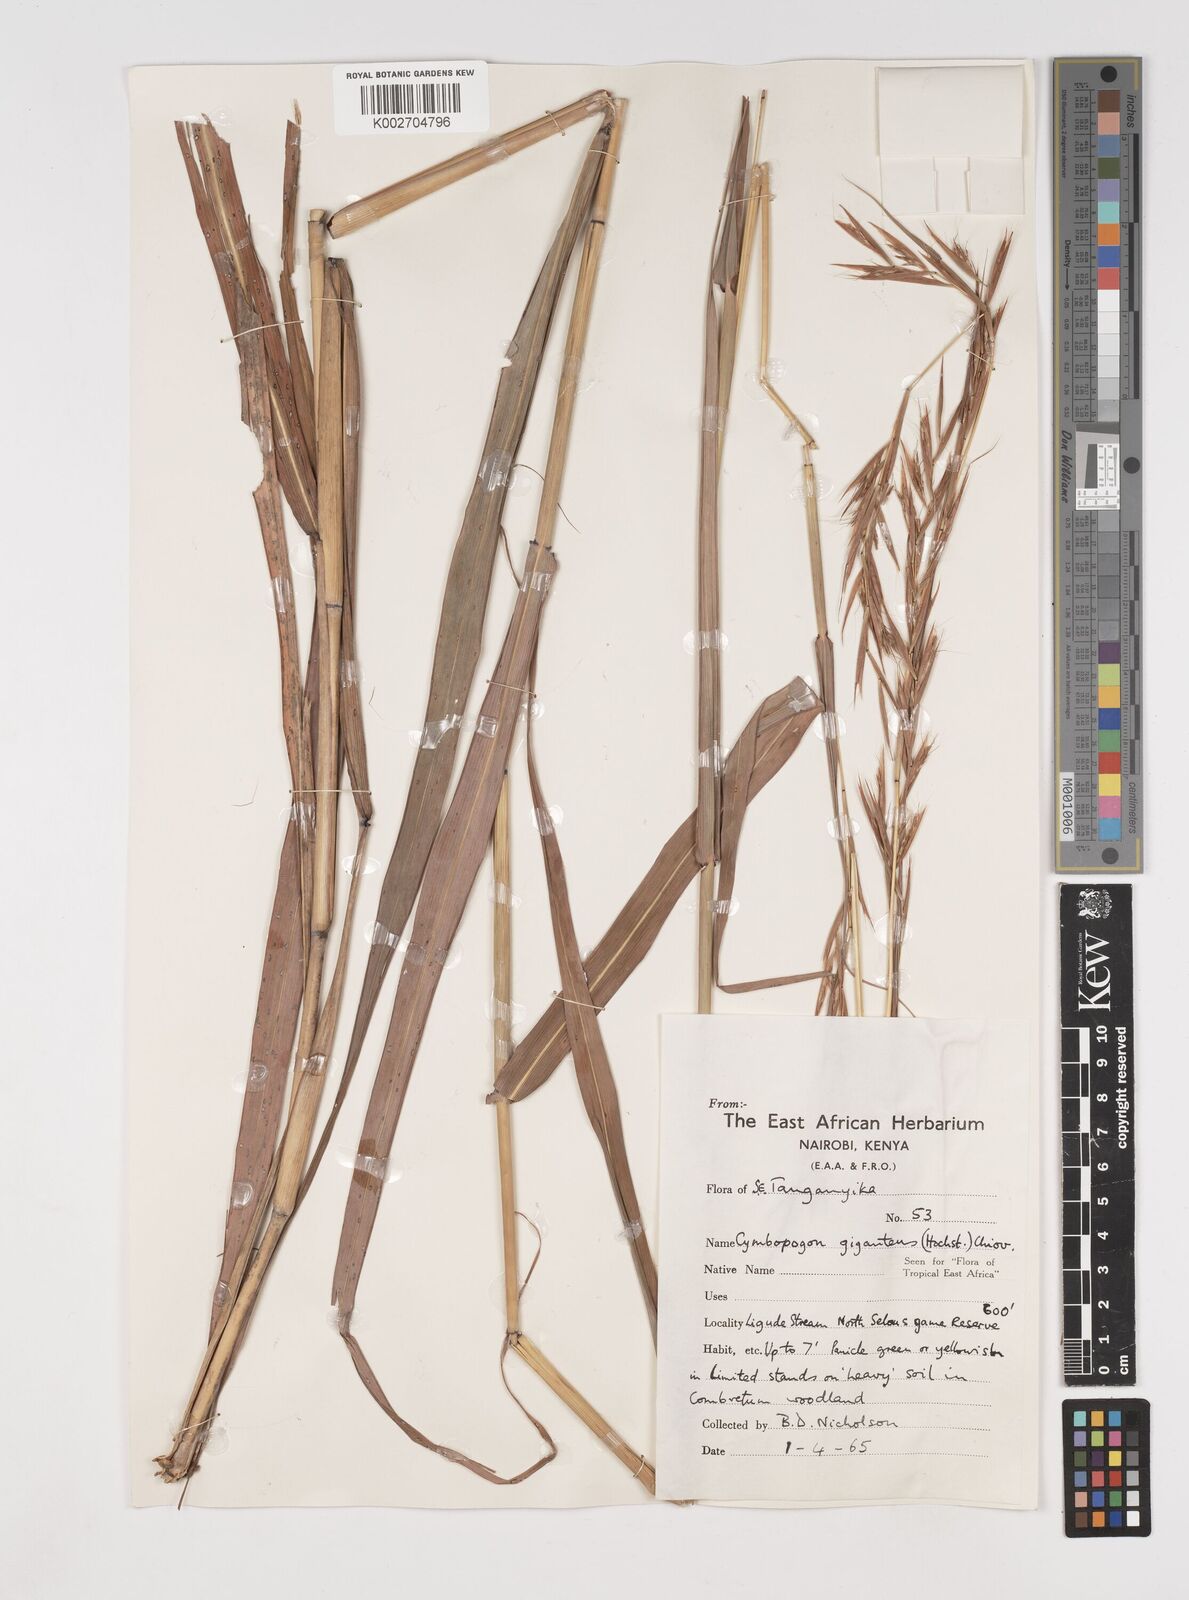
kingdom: Plantae
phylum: Tracheophyta
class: Liliopsida
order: Poales
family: Poaceae
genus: Cymbopogon
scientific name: Cymbopogon giganteus
